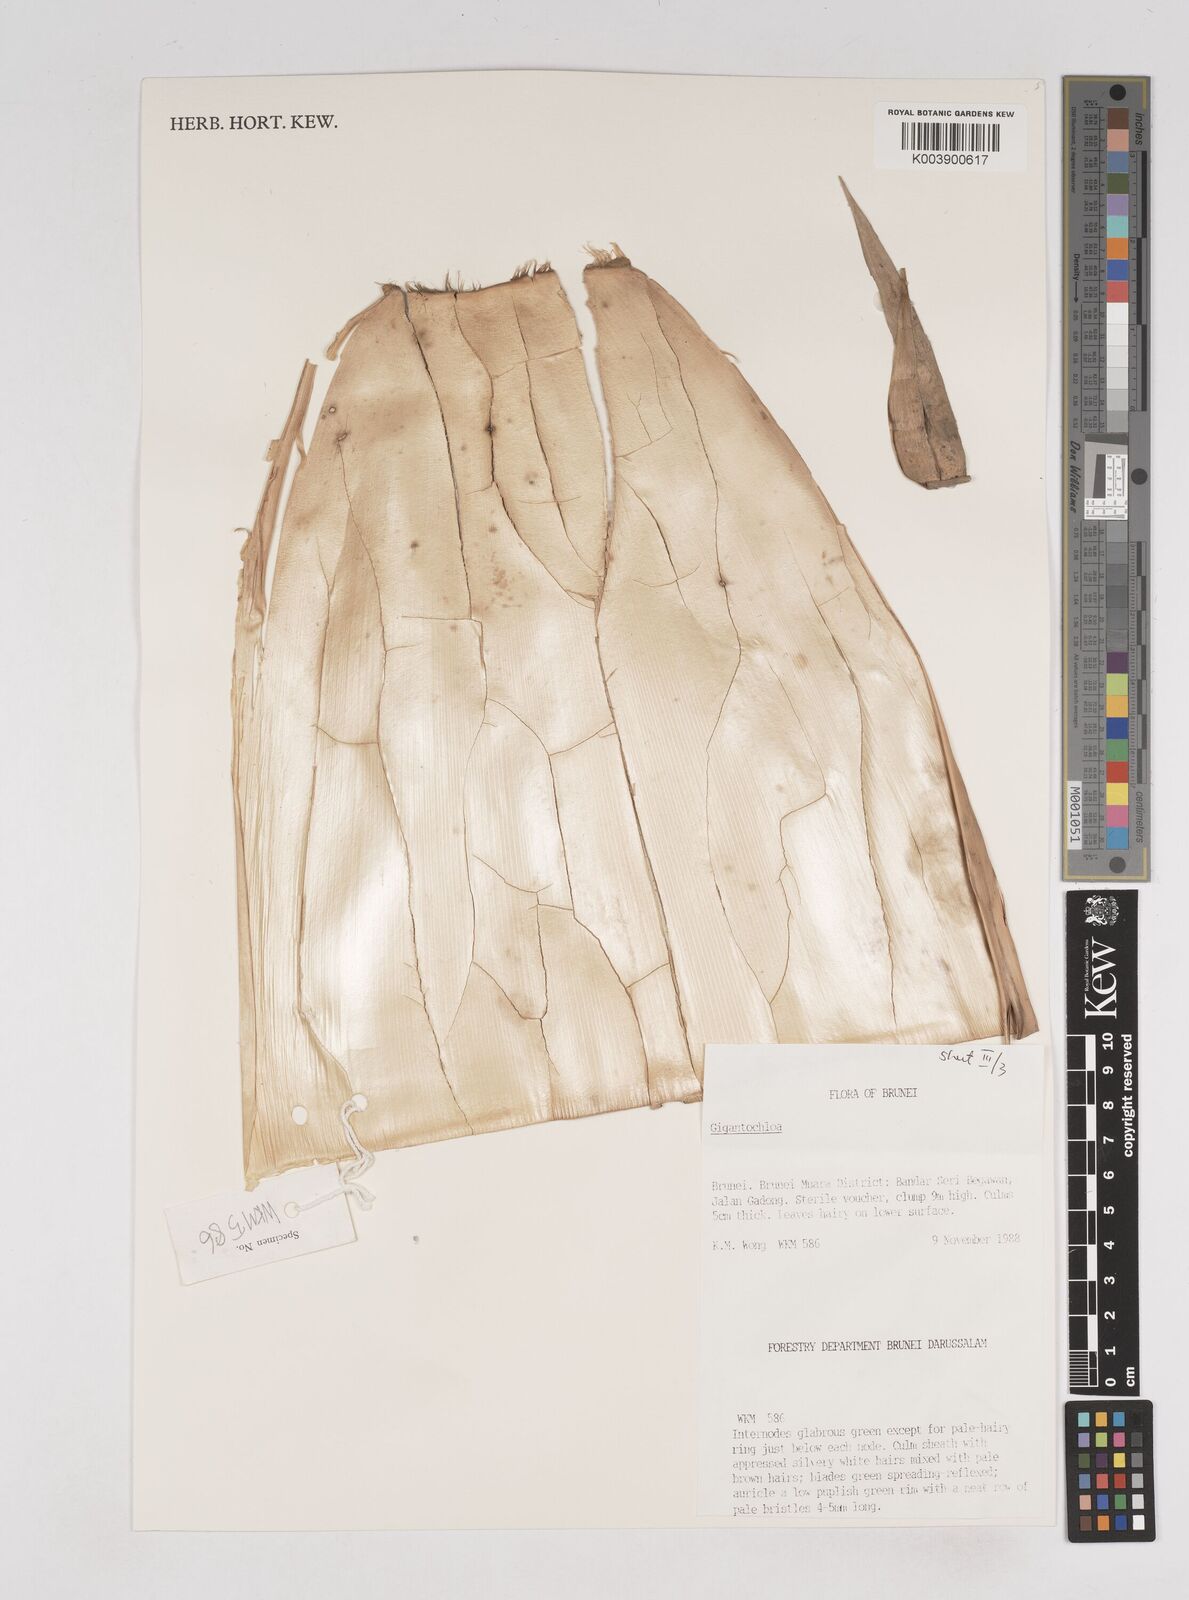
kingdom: Plantae
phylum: Tracheophyta
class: Liliopsida
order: Poales
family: Poaceae
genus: Gigantochloa
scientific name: Gigantochloa
